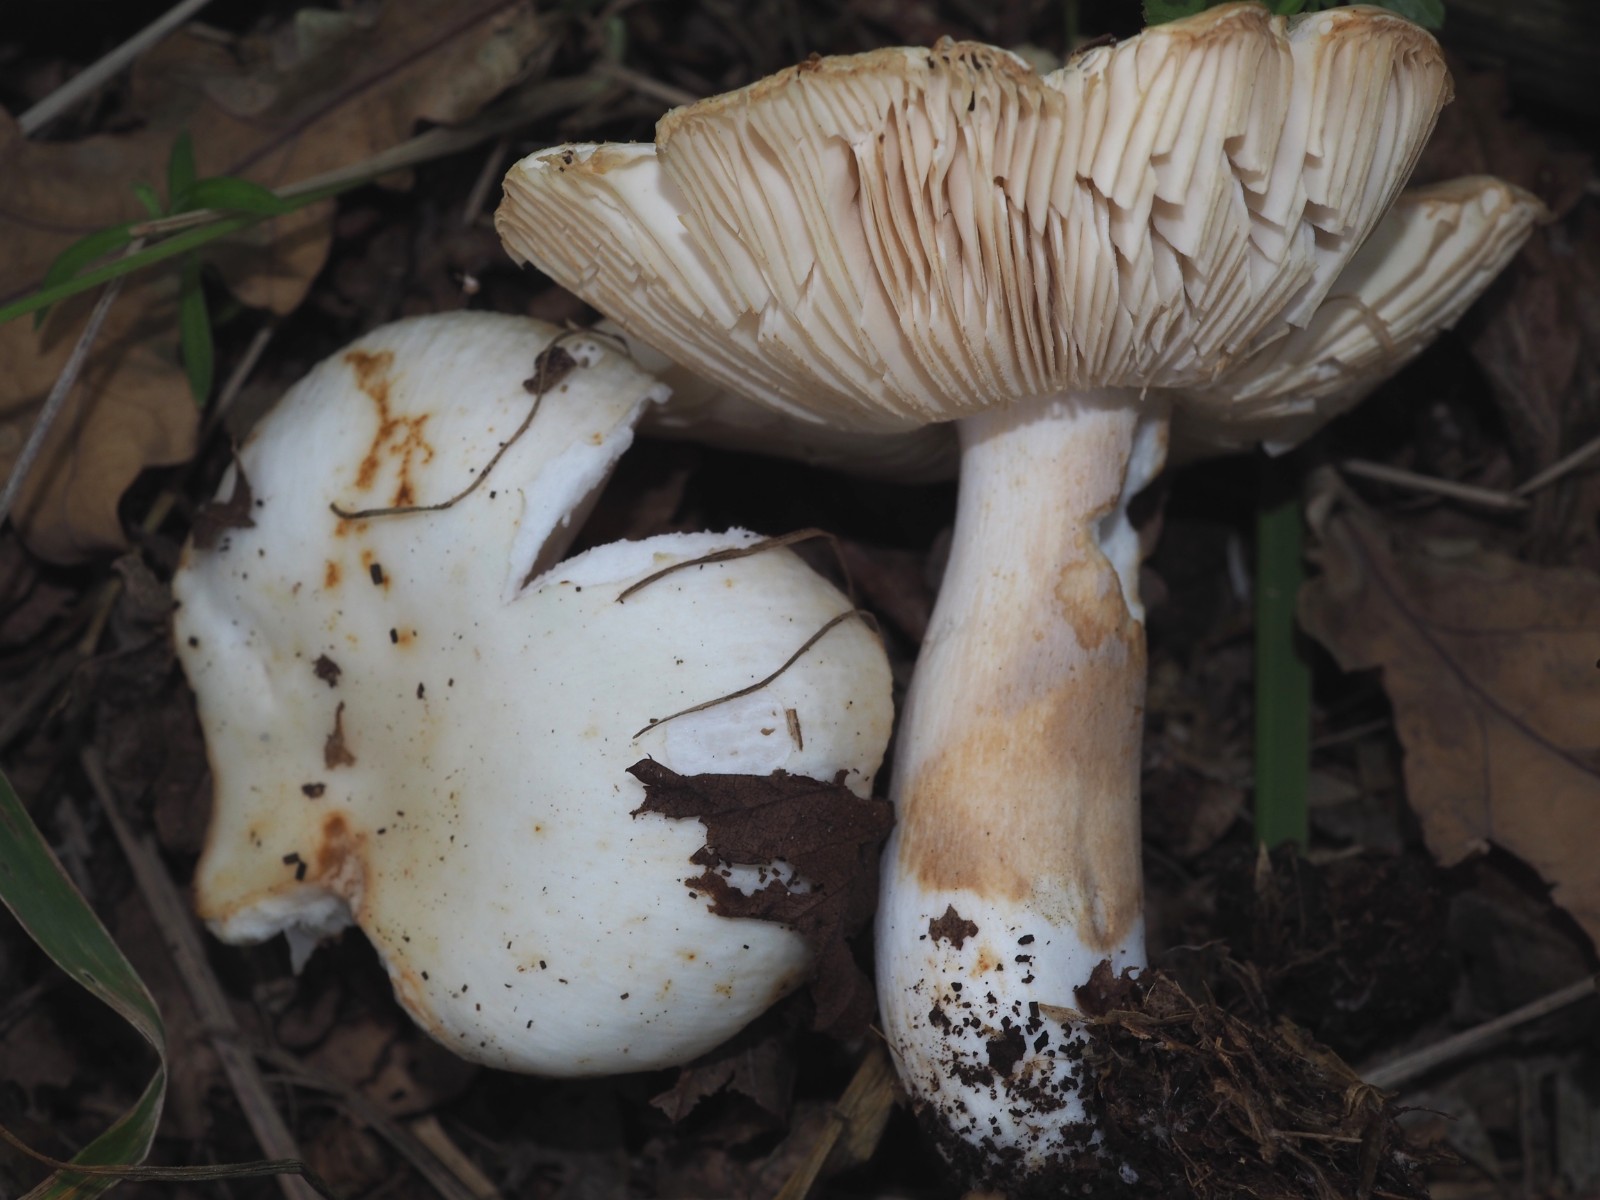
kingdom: Fungi
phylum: Basidiomycota
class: Agaricomycetes
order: Russulales
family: Russulaceae
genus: Russula
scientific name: Russula
